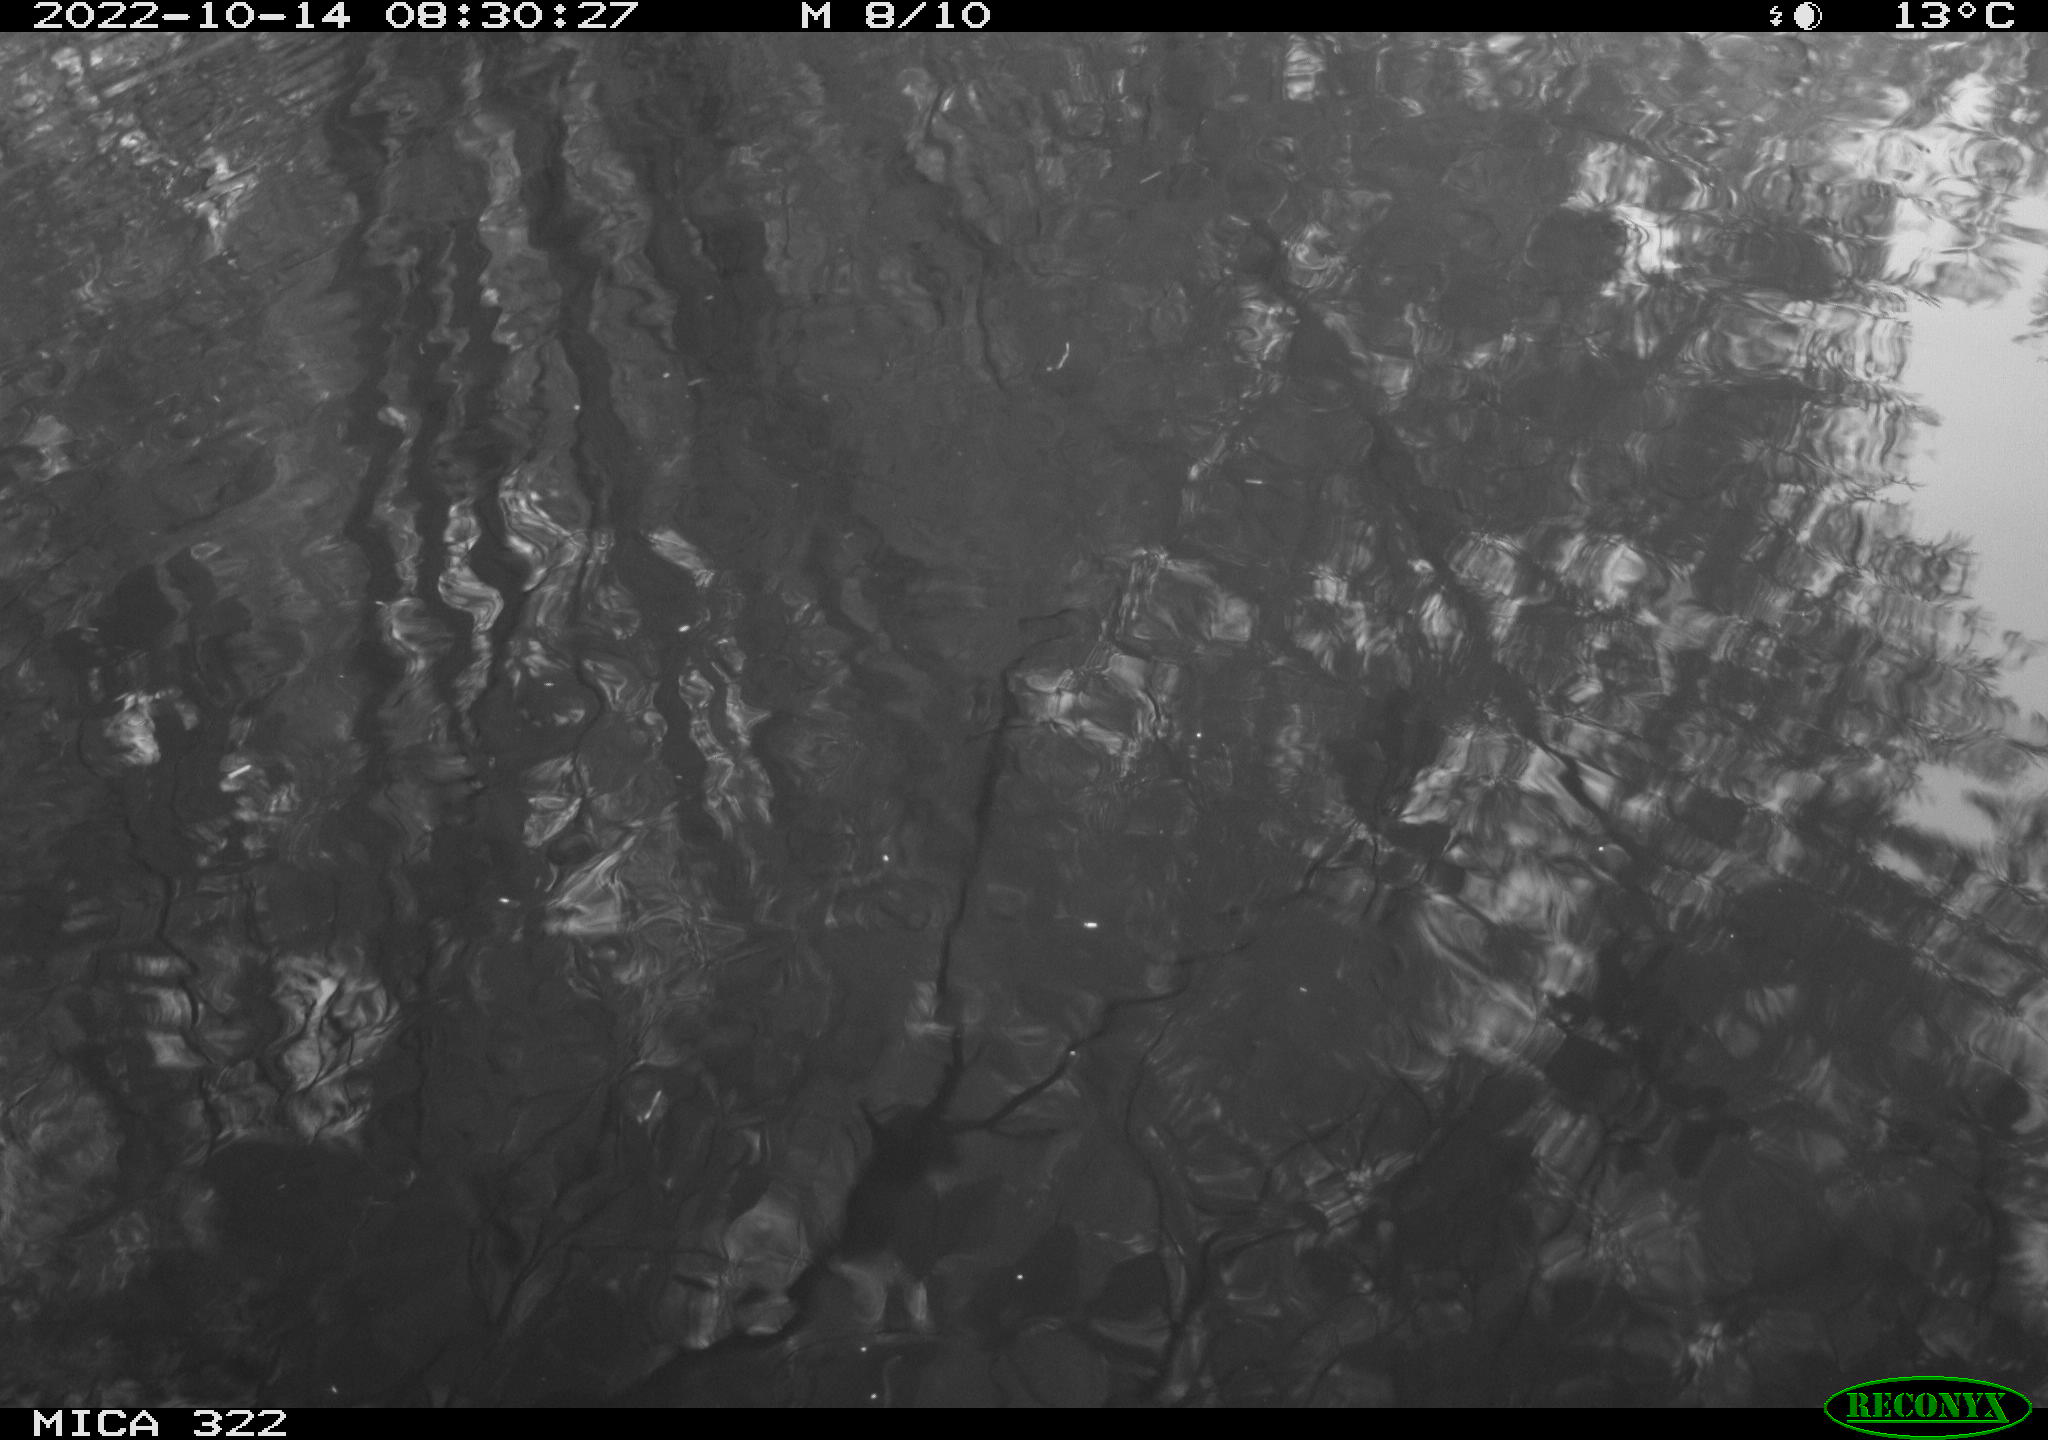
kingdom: Animalia
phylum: Chordata
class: Aves
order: Gruiformes
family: Rallidae
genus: Gallinula
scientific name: Gallinula chloropus
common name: Common moorhen
